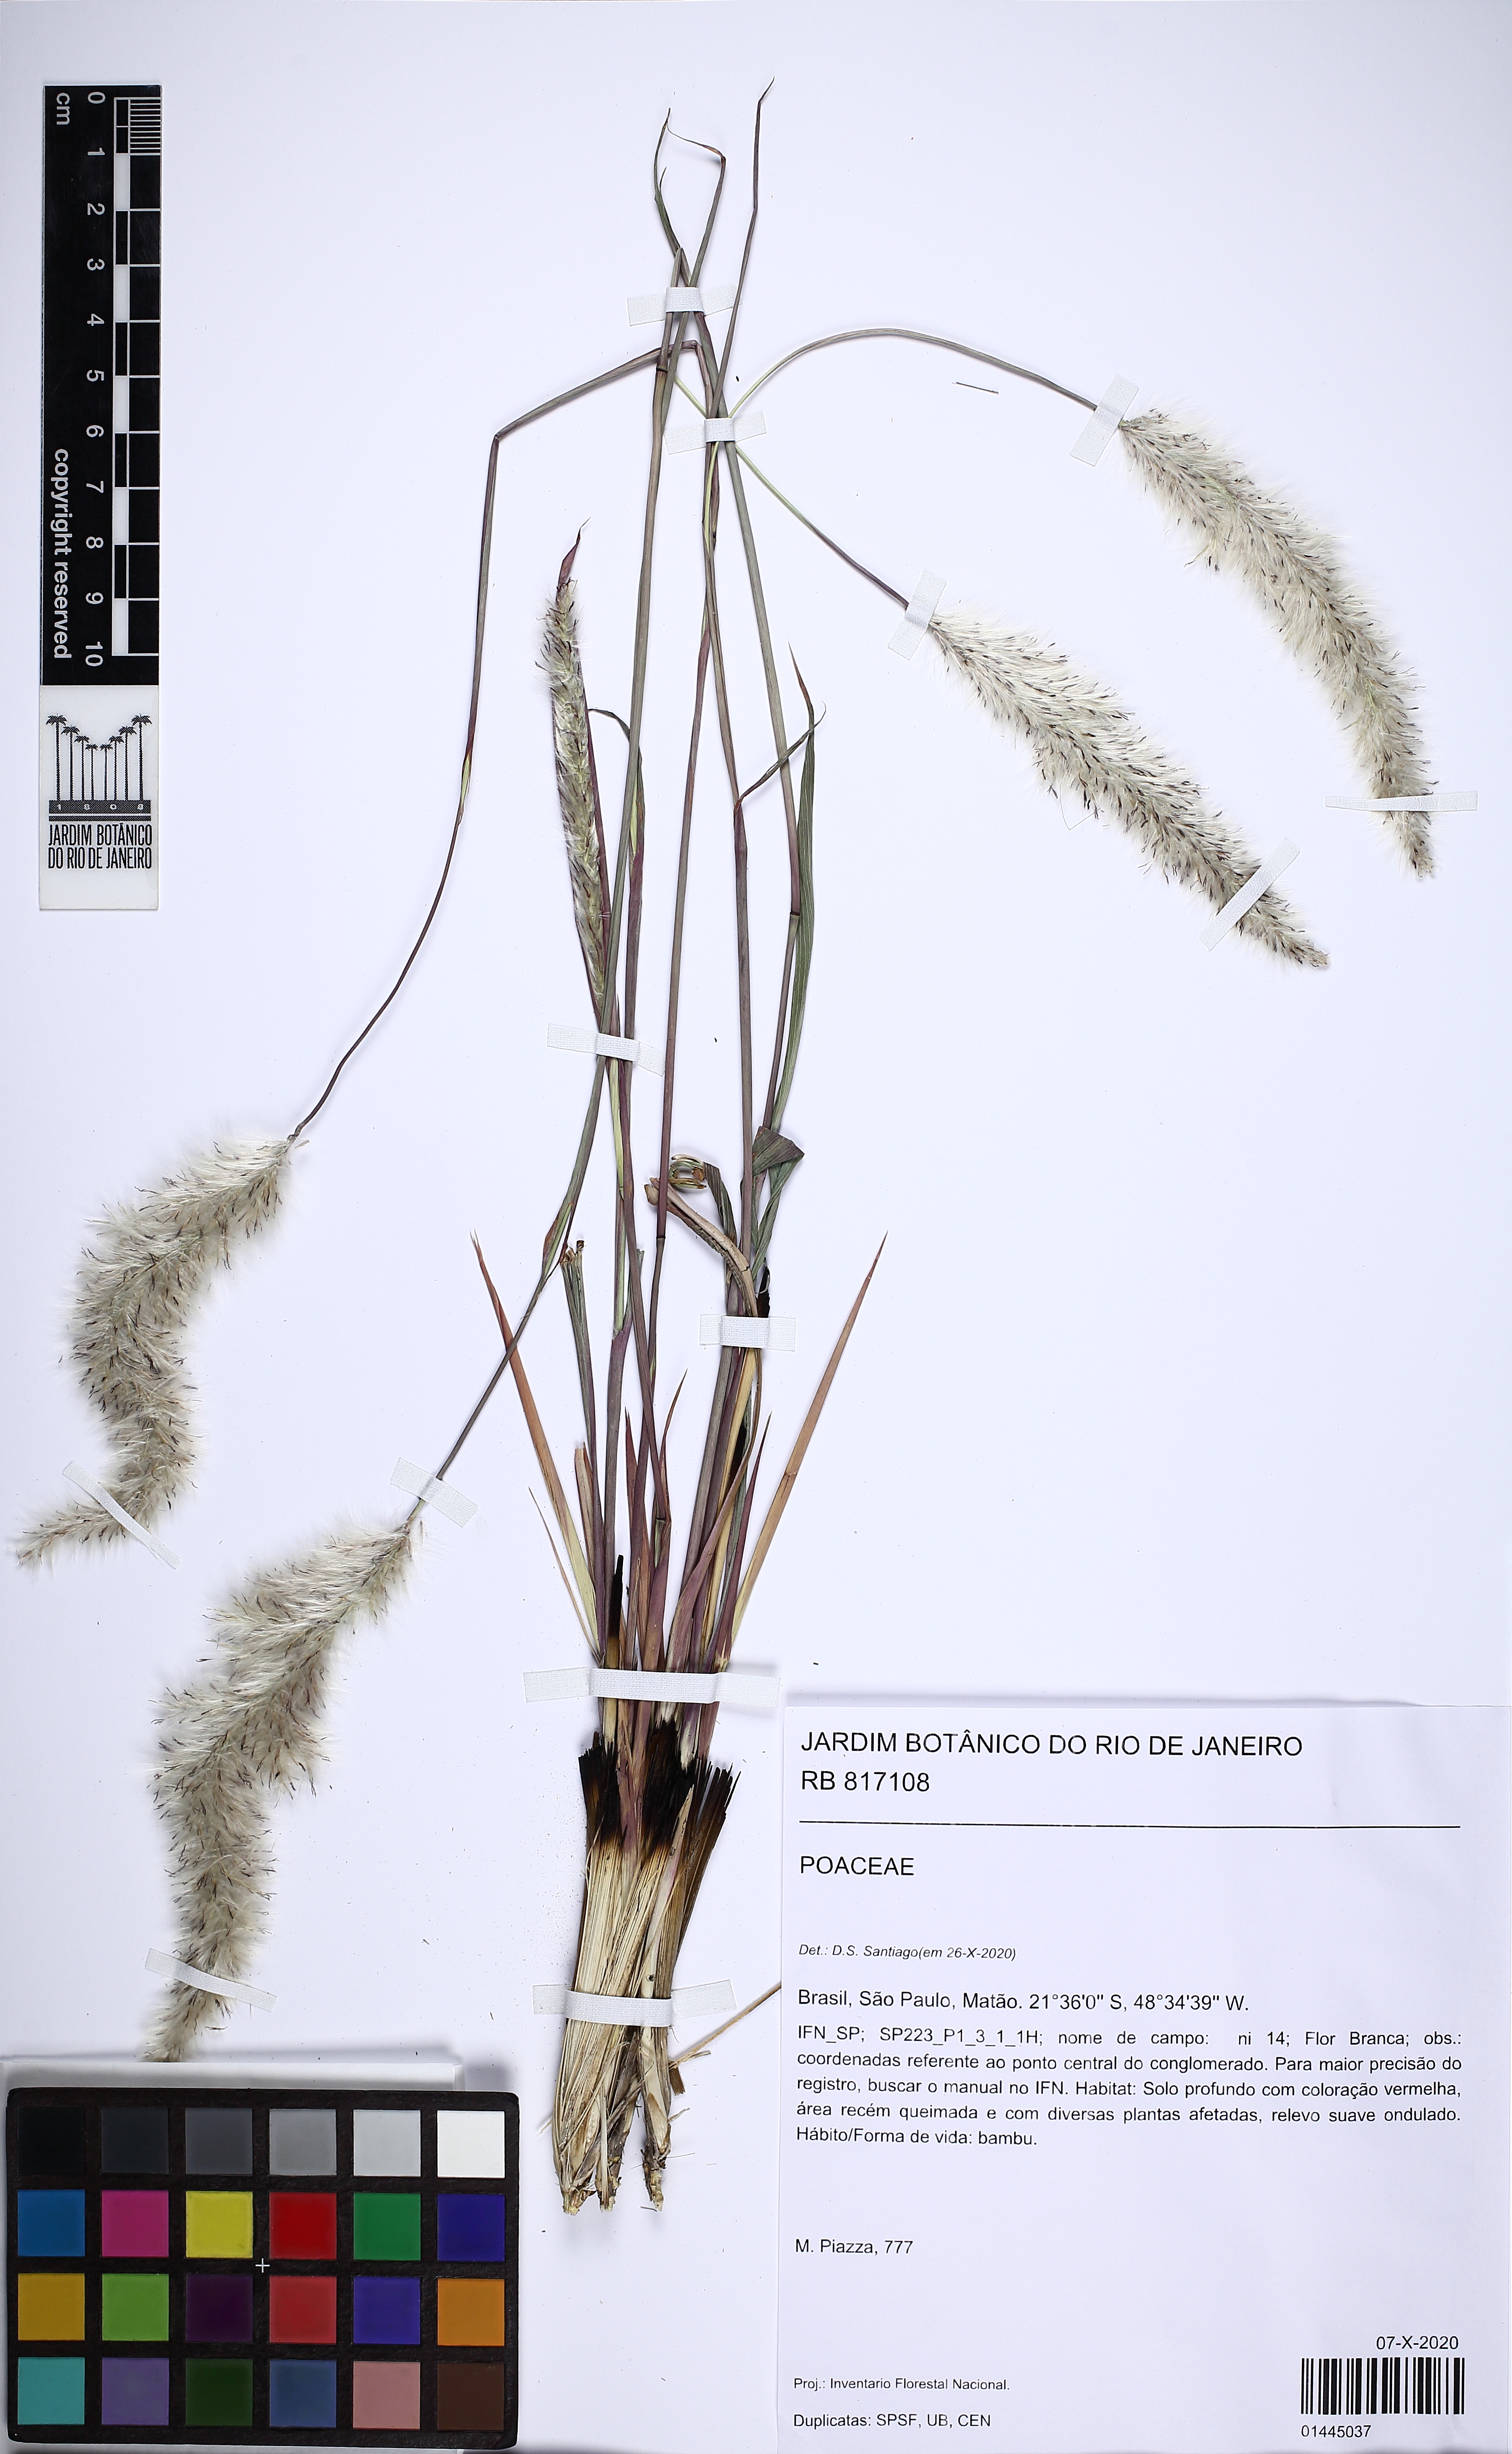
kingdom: Plantae
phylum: Tracheophyta
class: Liliopsida
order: Poales
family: Poaceae
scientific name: Poaceae
